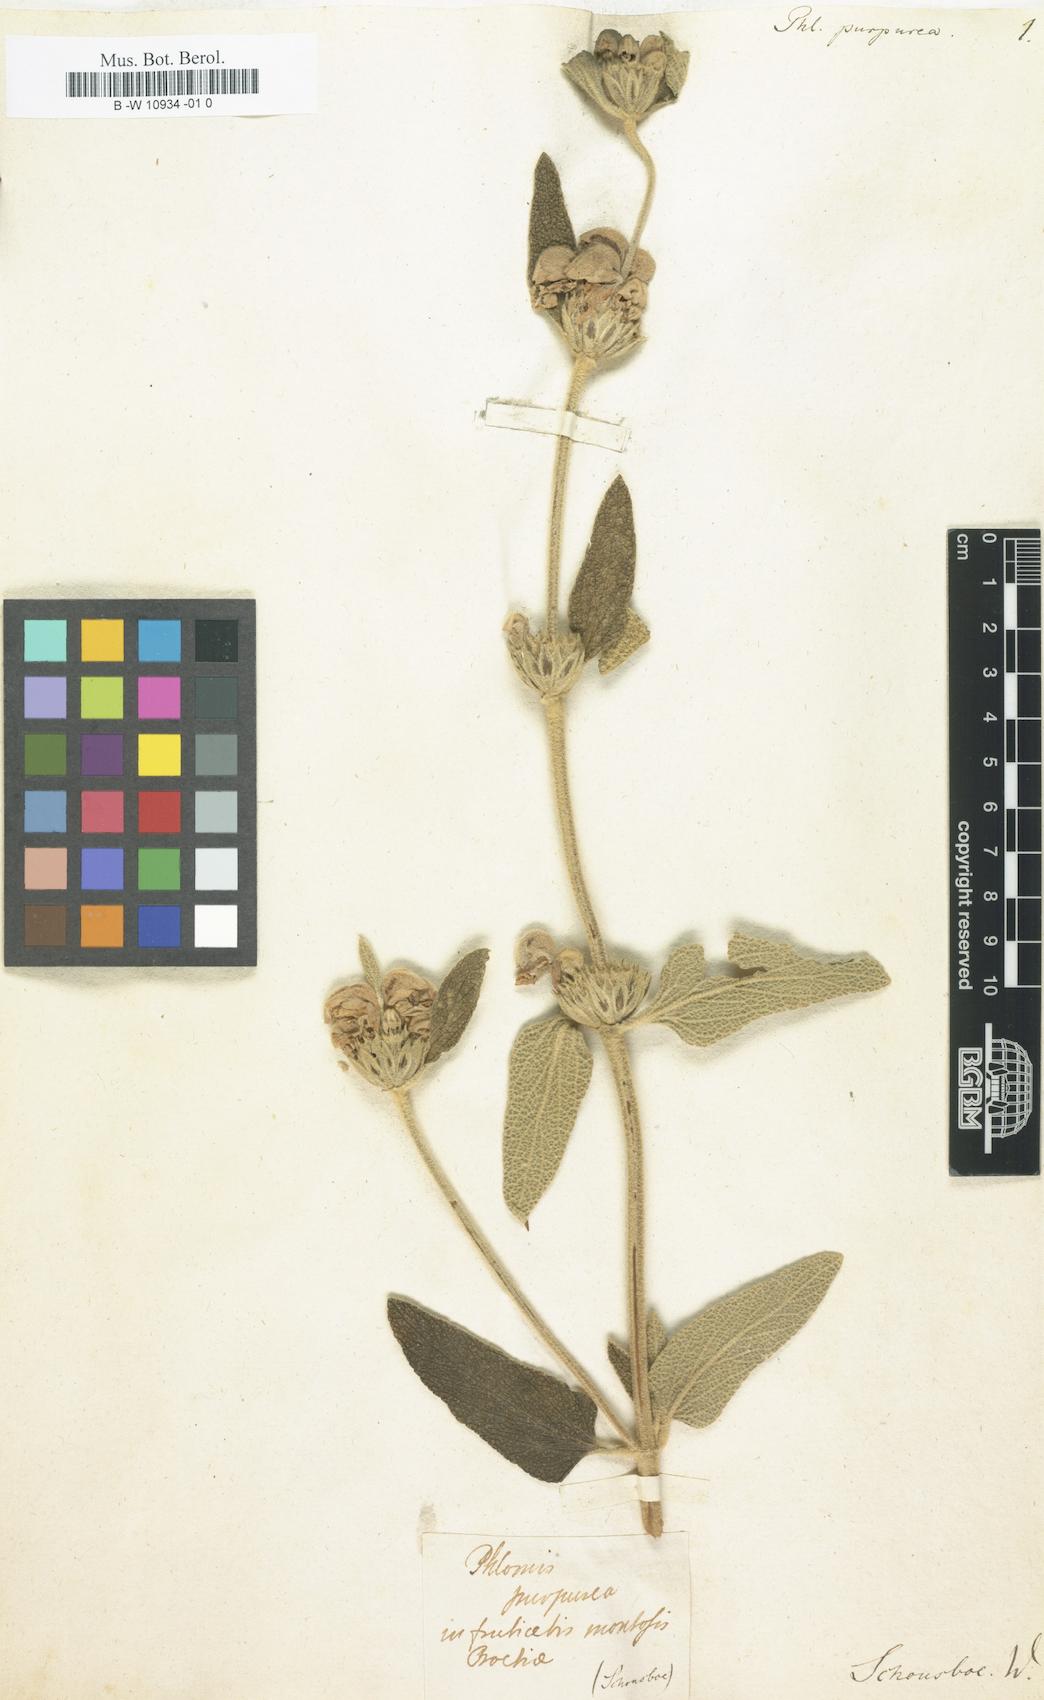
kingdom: Plantae
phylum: Tracheophyta
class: Magnoliopsida
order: Lamiales
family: Lamiaceae
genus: Phlomis
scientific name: Phlomis purpurea
